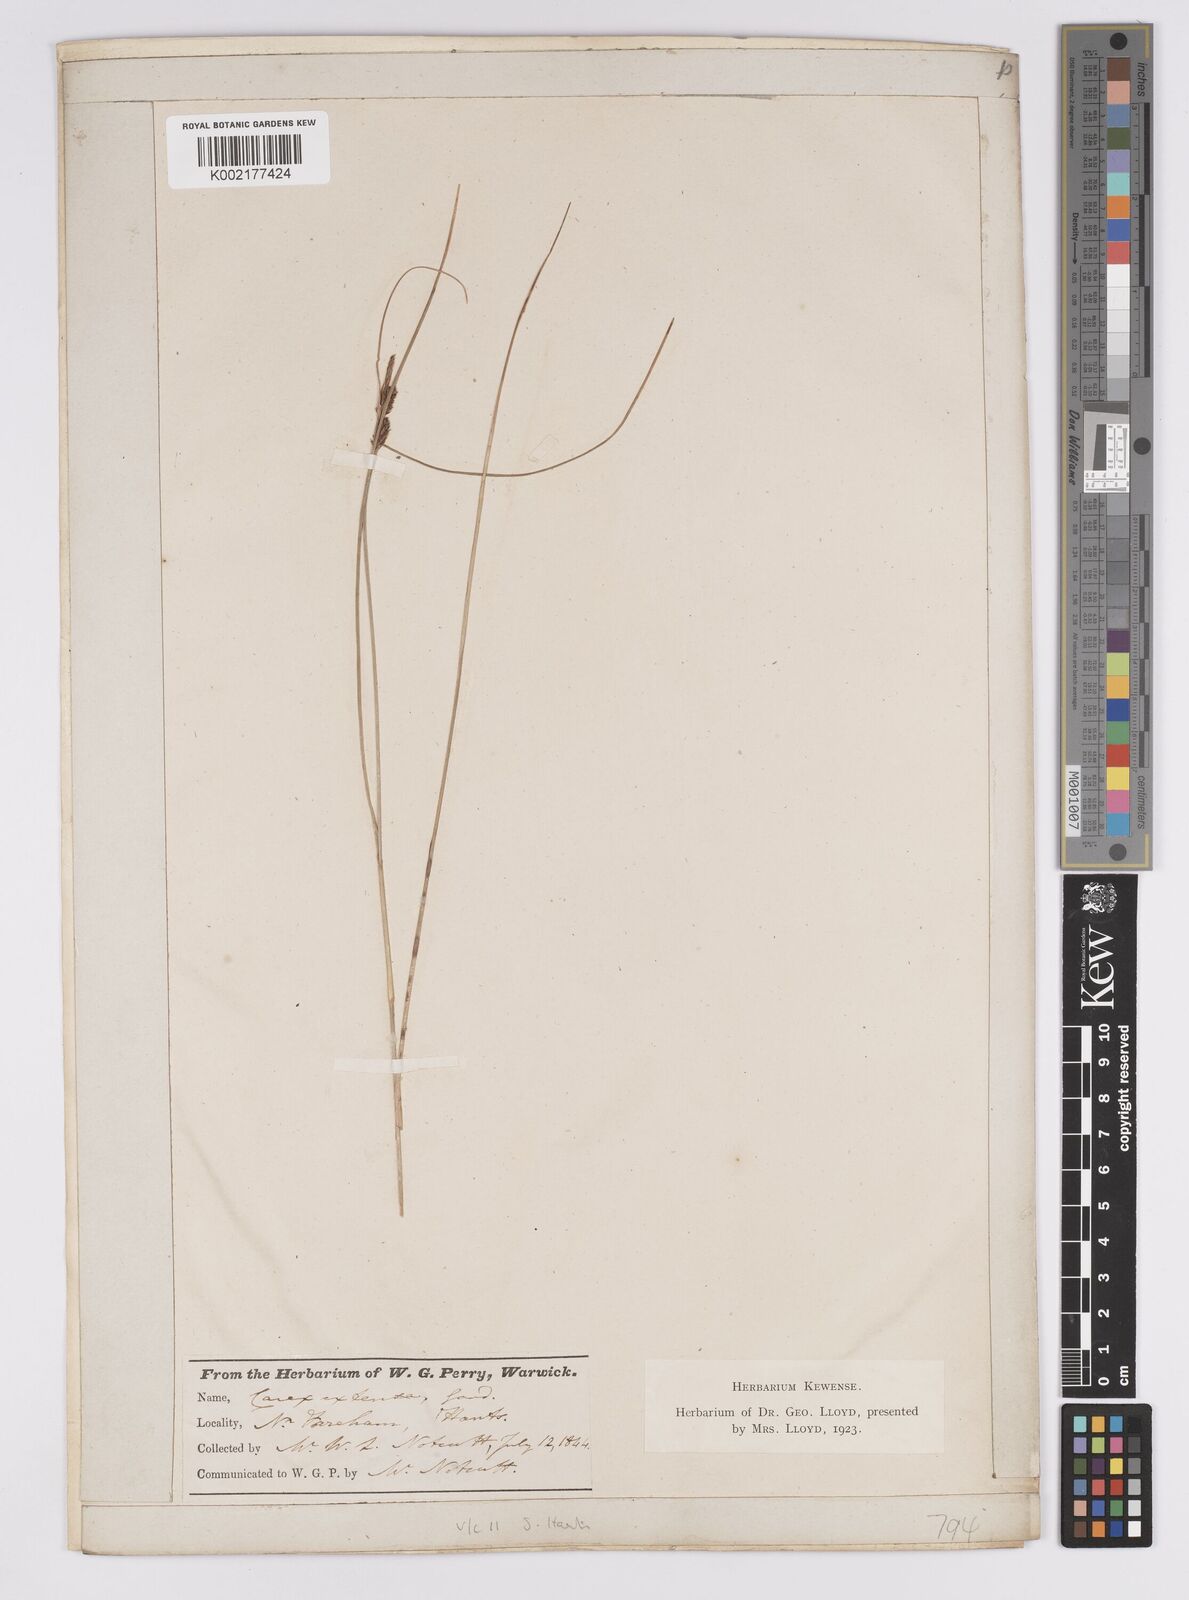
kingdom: Plantae
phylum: Tracheophyta
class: Liliopsida
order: Poales
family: Cyperaceae
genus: Carex
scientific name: Carex extensa
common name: Long-bracted sedge
